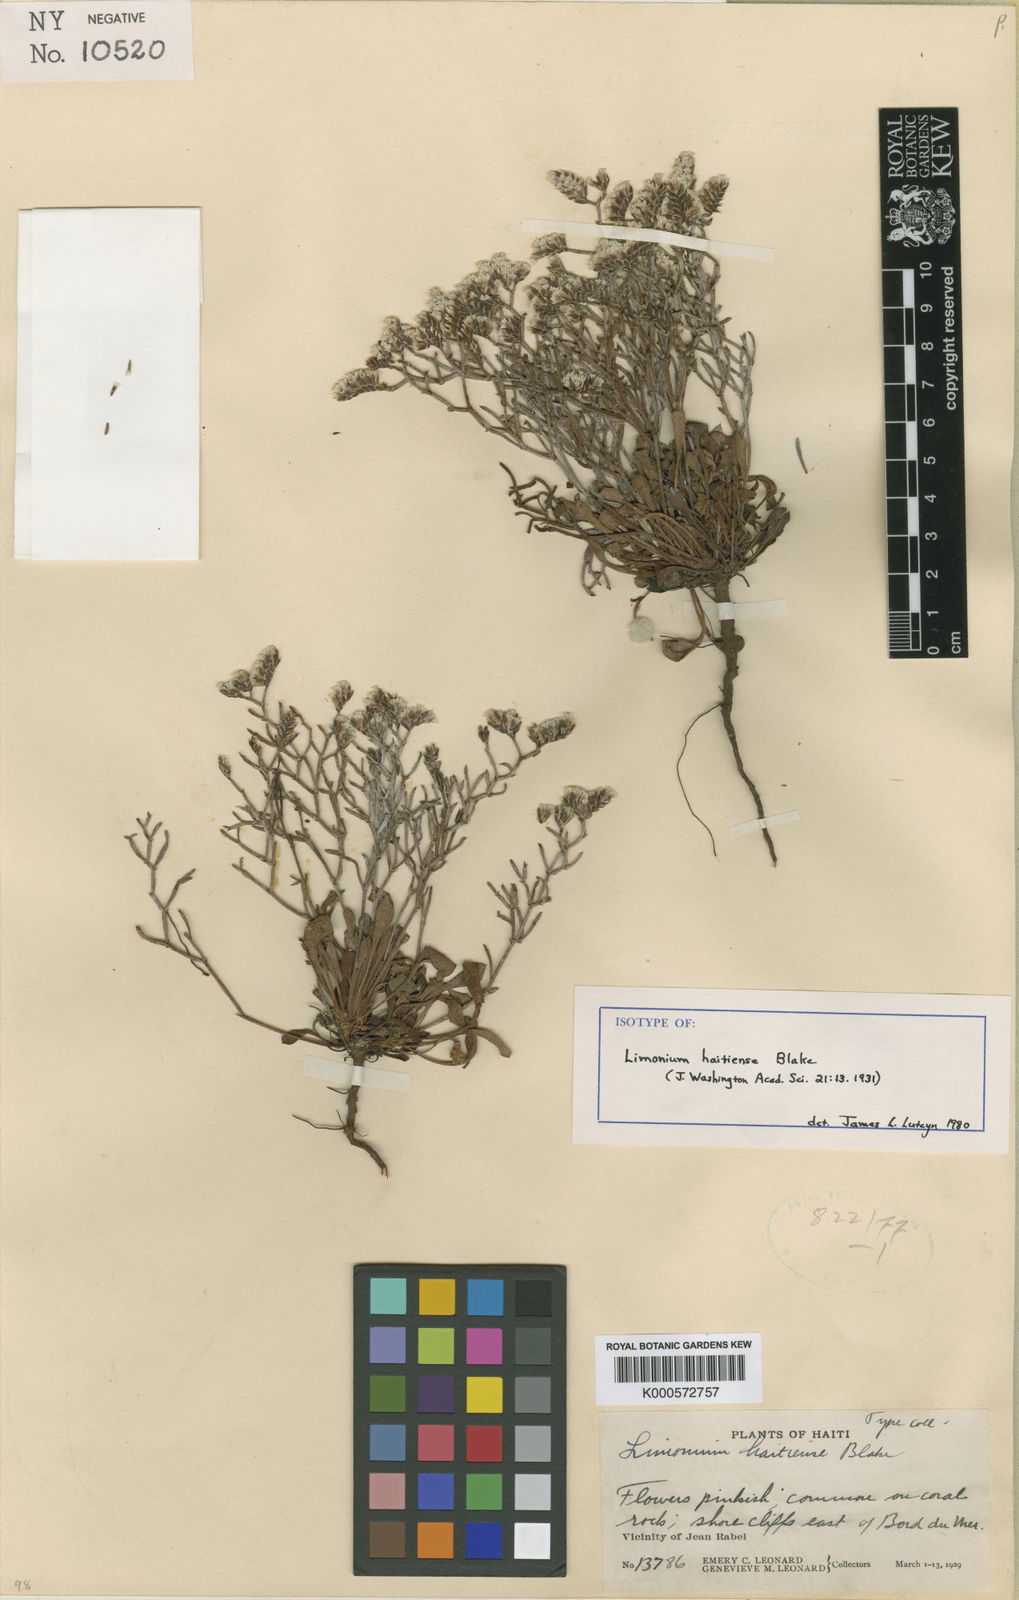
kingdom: Plantae
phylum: Tracheophyta
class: Magnoliopsida
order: Caryophyllales
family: Plumbaginaceae
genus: Limonium
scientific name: Limonium bahamense
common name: Heather
